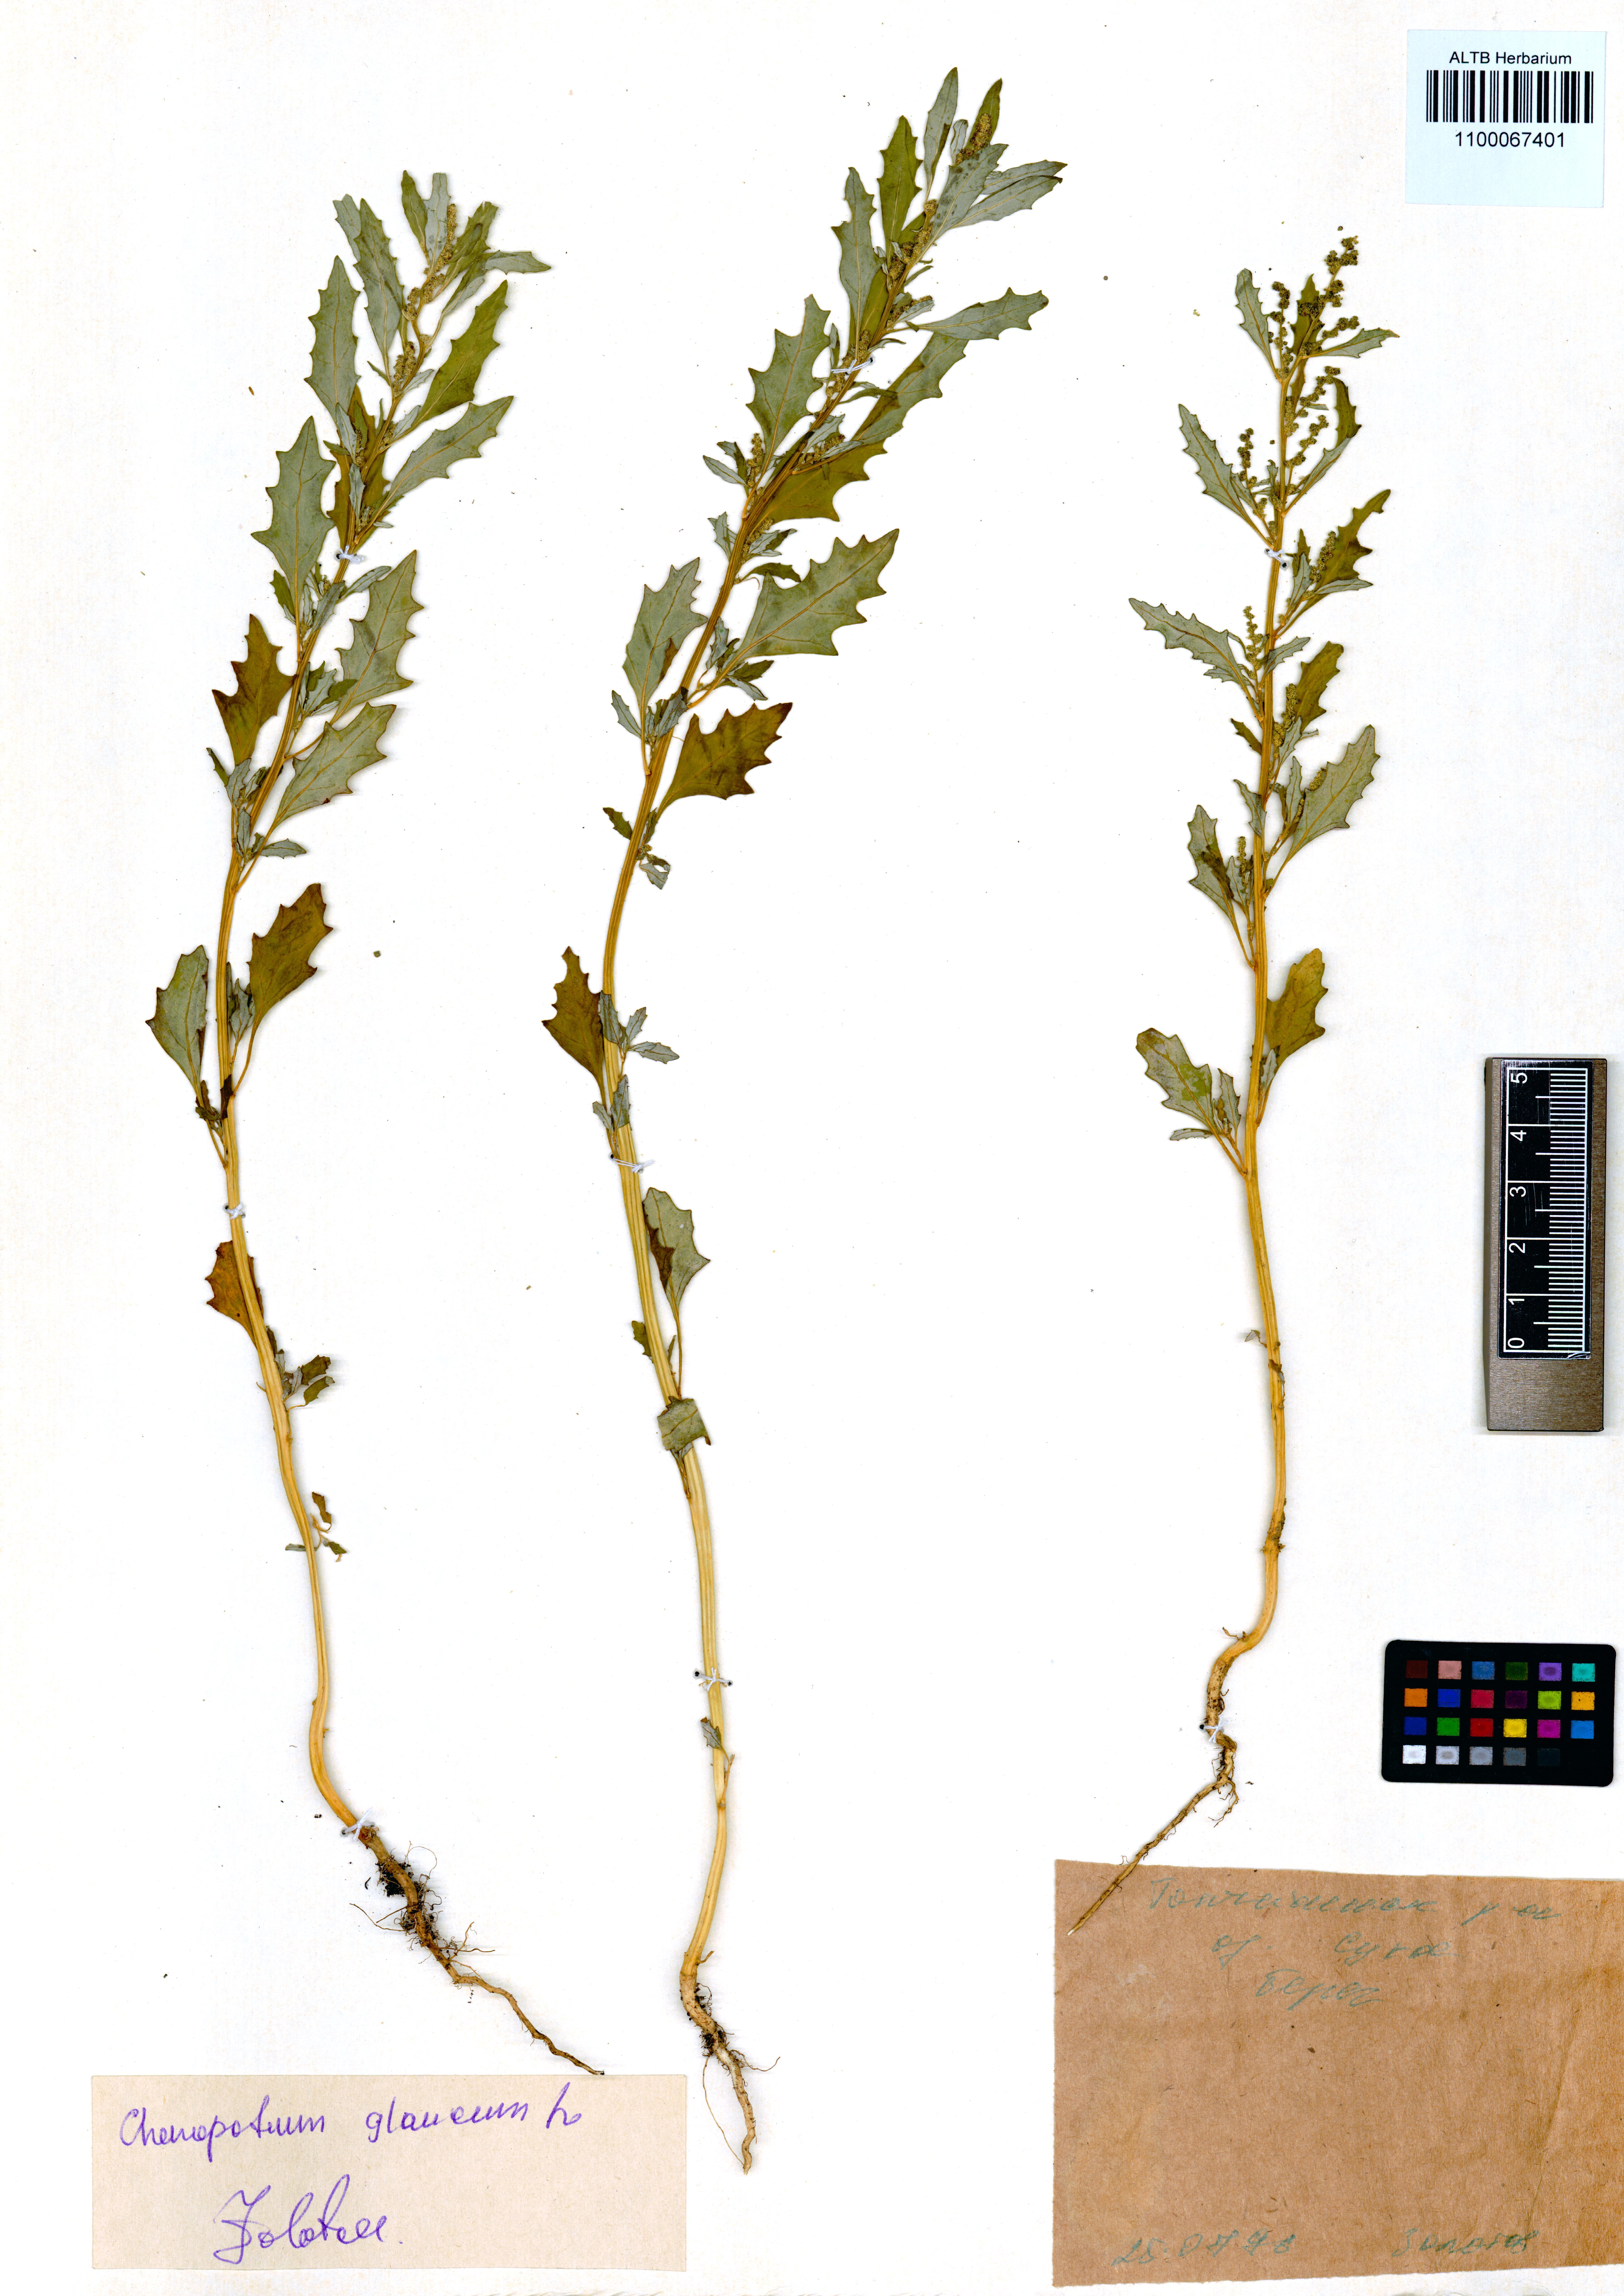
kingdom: Plantae
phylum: Tracheophyta
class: Magnoliopsida
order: Caryophyllales
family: Amaranthaceae
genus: Oxybasis
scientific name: Oxybasis glauca
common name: Glaucous goosefoot
